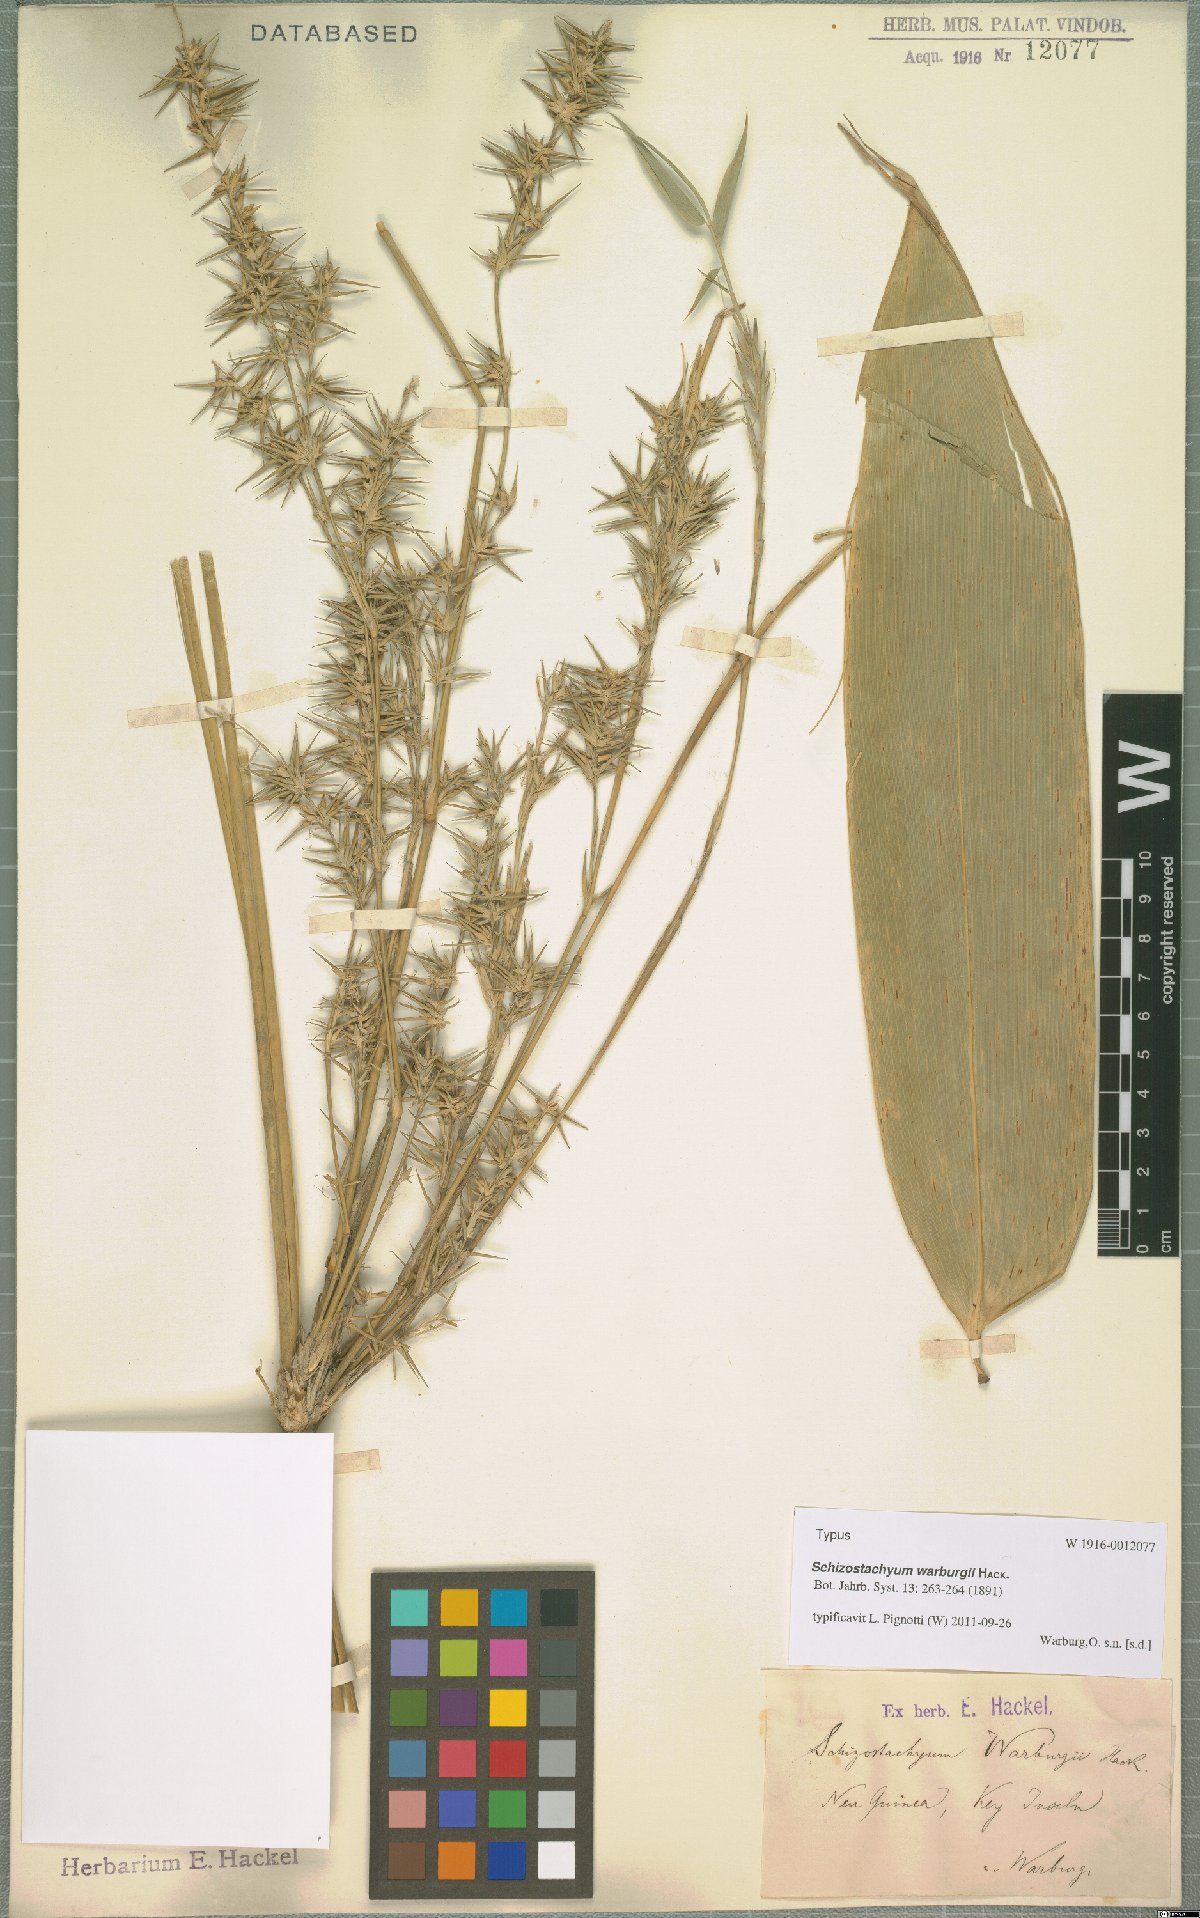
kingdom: Plantae
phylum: Tracheophyta
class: Liliopsida
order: Poales
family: Poaceae
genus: Schizostachyum
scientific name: Schizostachyum warburgii
